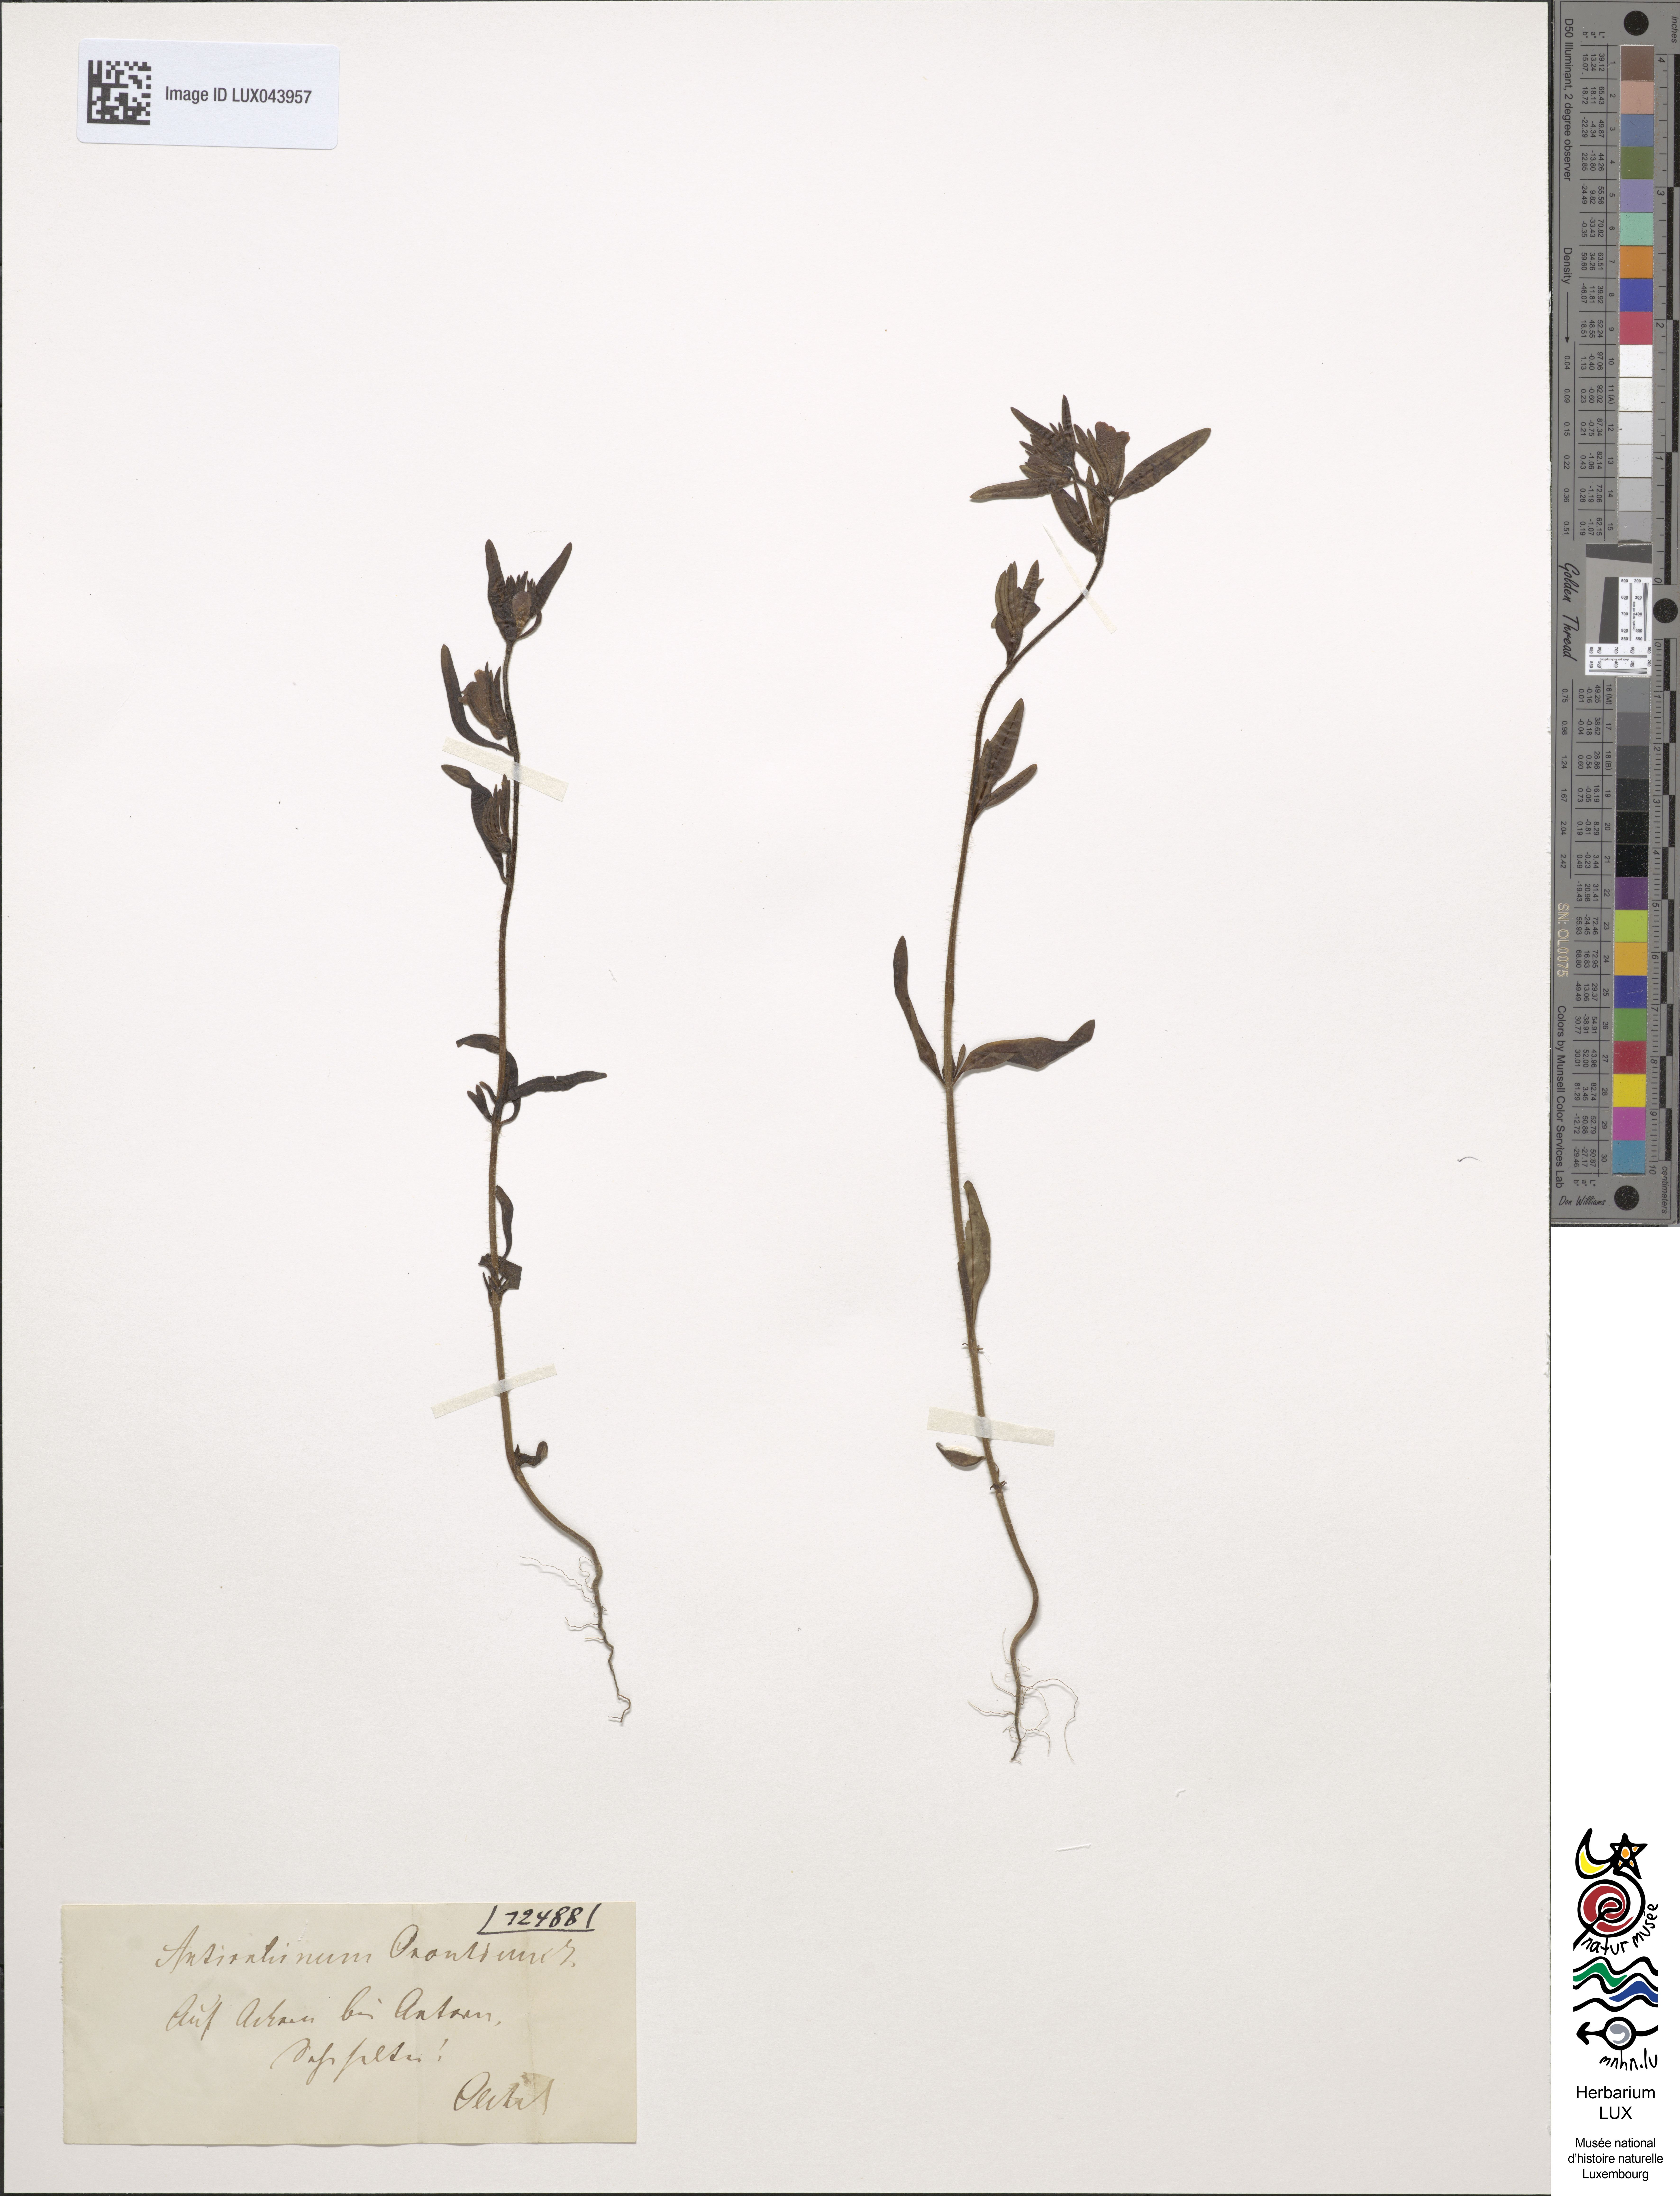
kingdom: Plantae
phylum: Tracheophyta
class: Magnoliopsida
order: Lamiales
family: Plantaginaceae
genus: Misopates
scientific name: Misopates orontium
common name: Weasel's-snout
